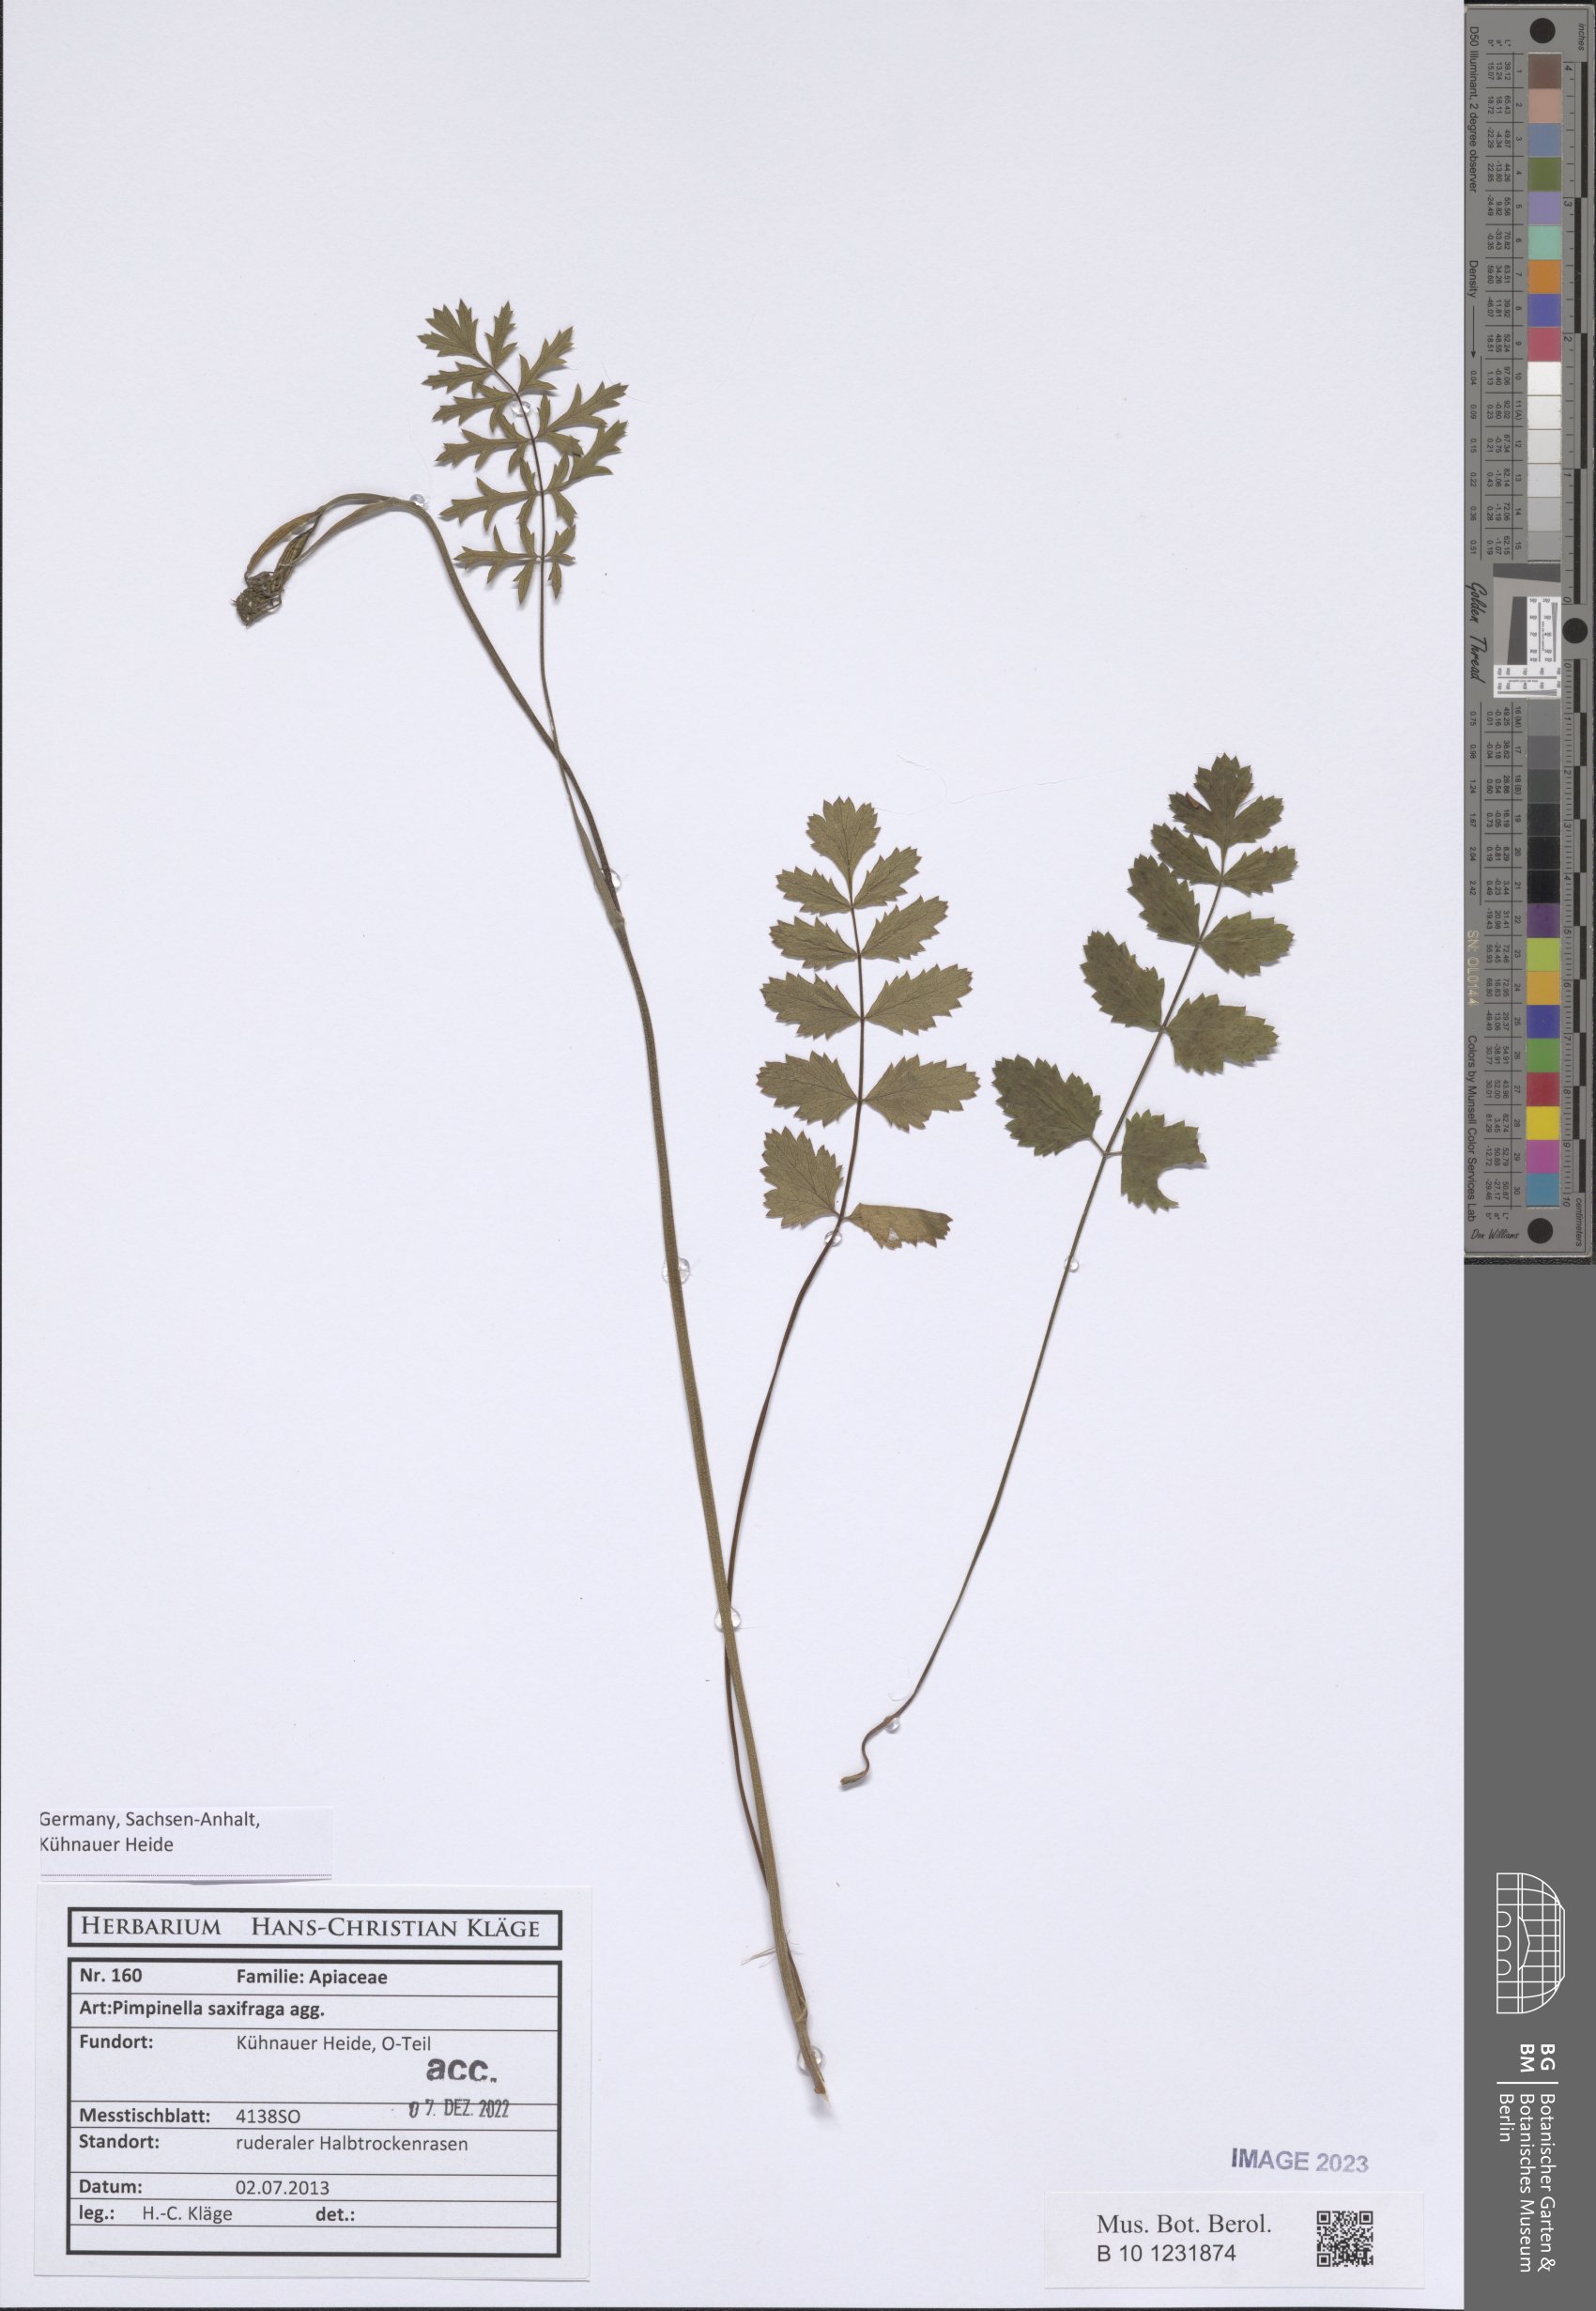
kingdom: Plantae
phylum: Tracheophyta
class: Magnoliopsida
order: Apiales
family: Apiaceae
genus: Pimpinella
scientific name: Pimpinella saxifraga
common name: Burnet-saxifrage
